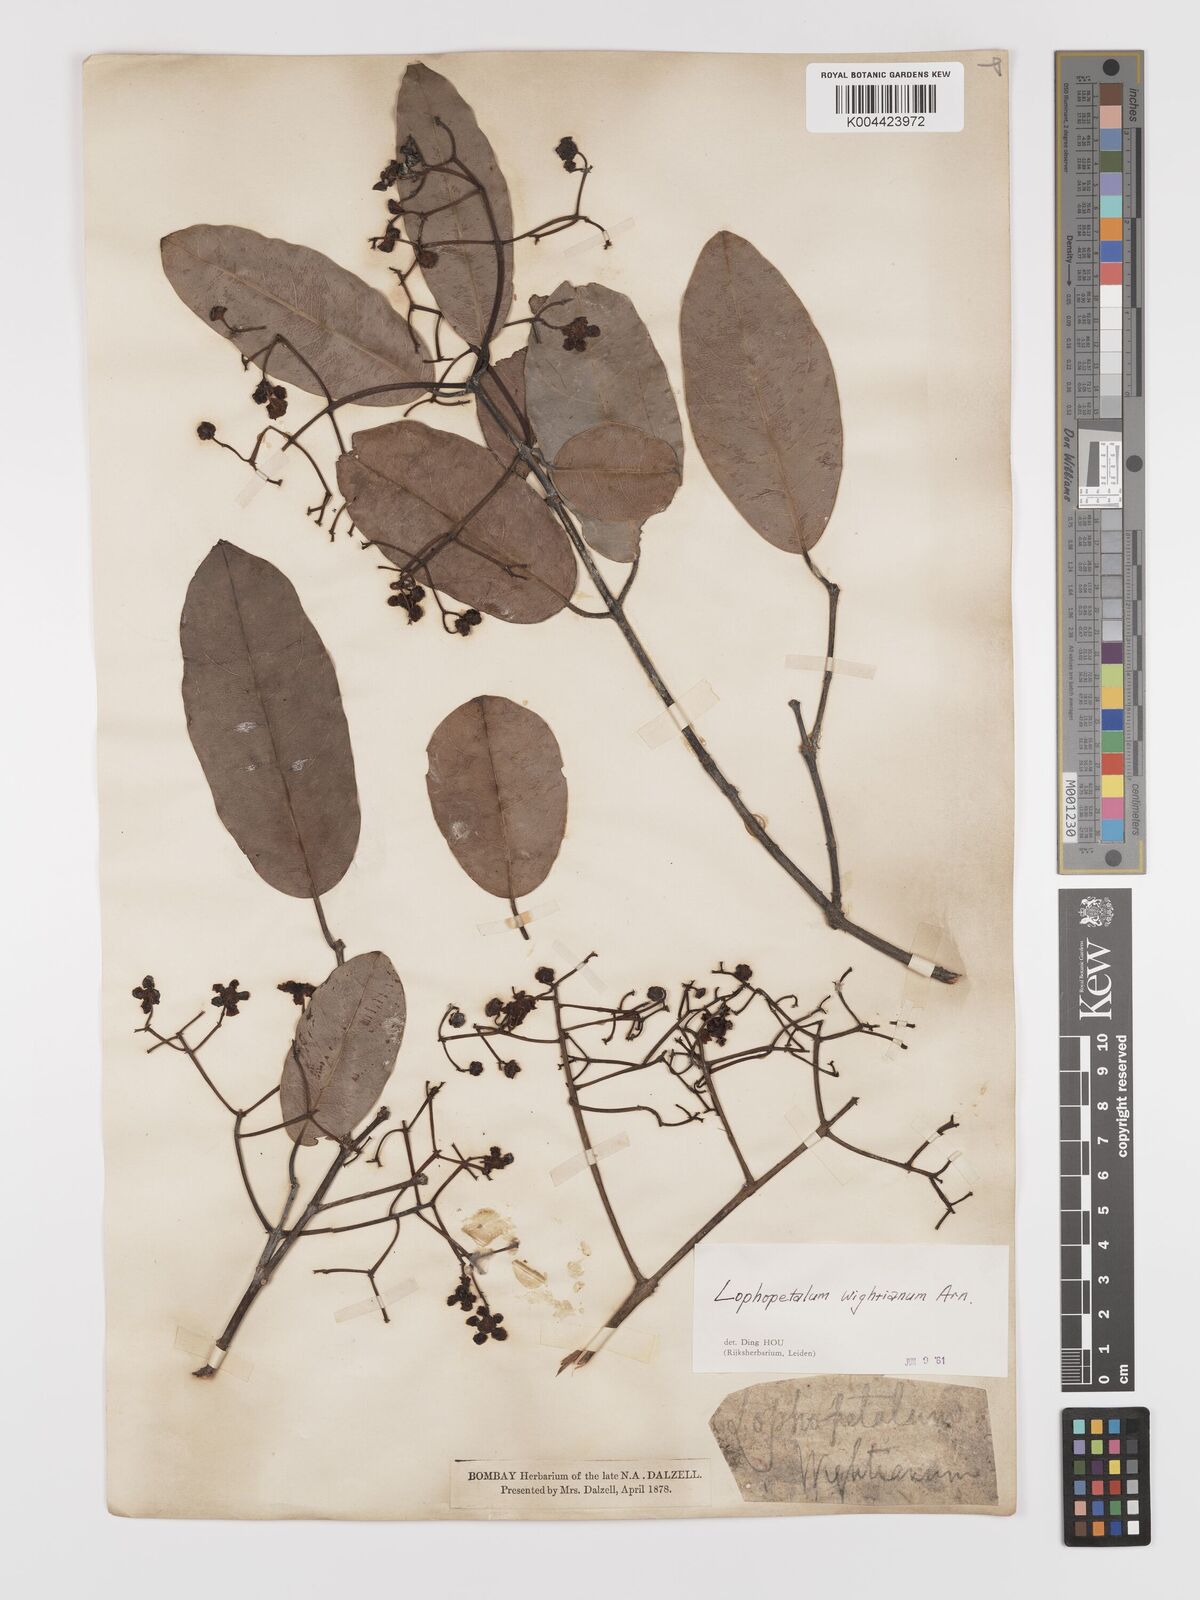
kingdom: Plantae
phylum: Tracheophyta
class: Magnoliopsida
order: Celastrales
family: Celastraceae
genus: Lophopetalum
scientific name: Lophopetalum wightianum
